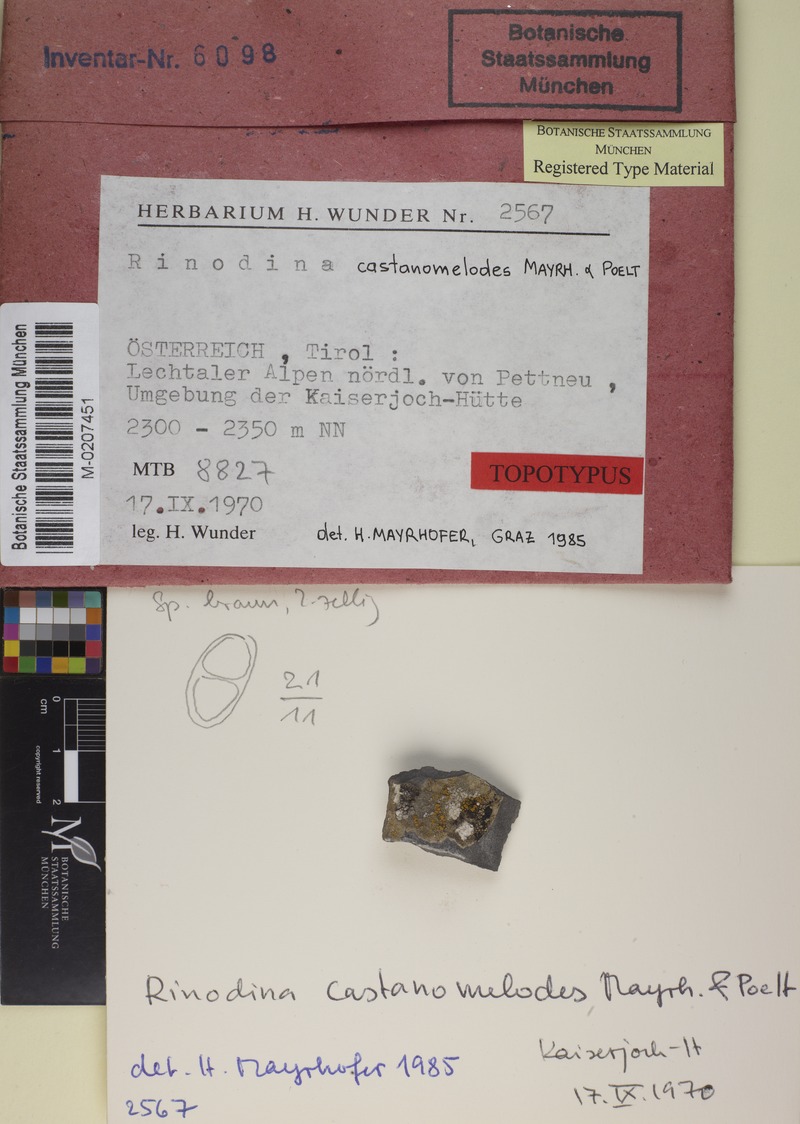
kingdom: Fungi
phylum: Ascomycota
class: Lecanoromycetes
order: Caliciales
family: Physciaceae
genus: Oxnerella
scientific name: Oxnerella castanomelodes
